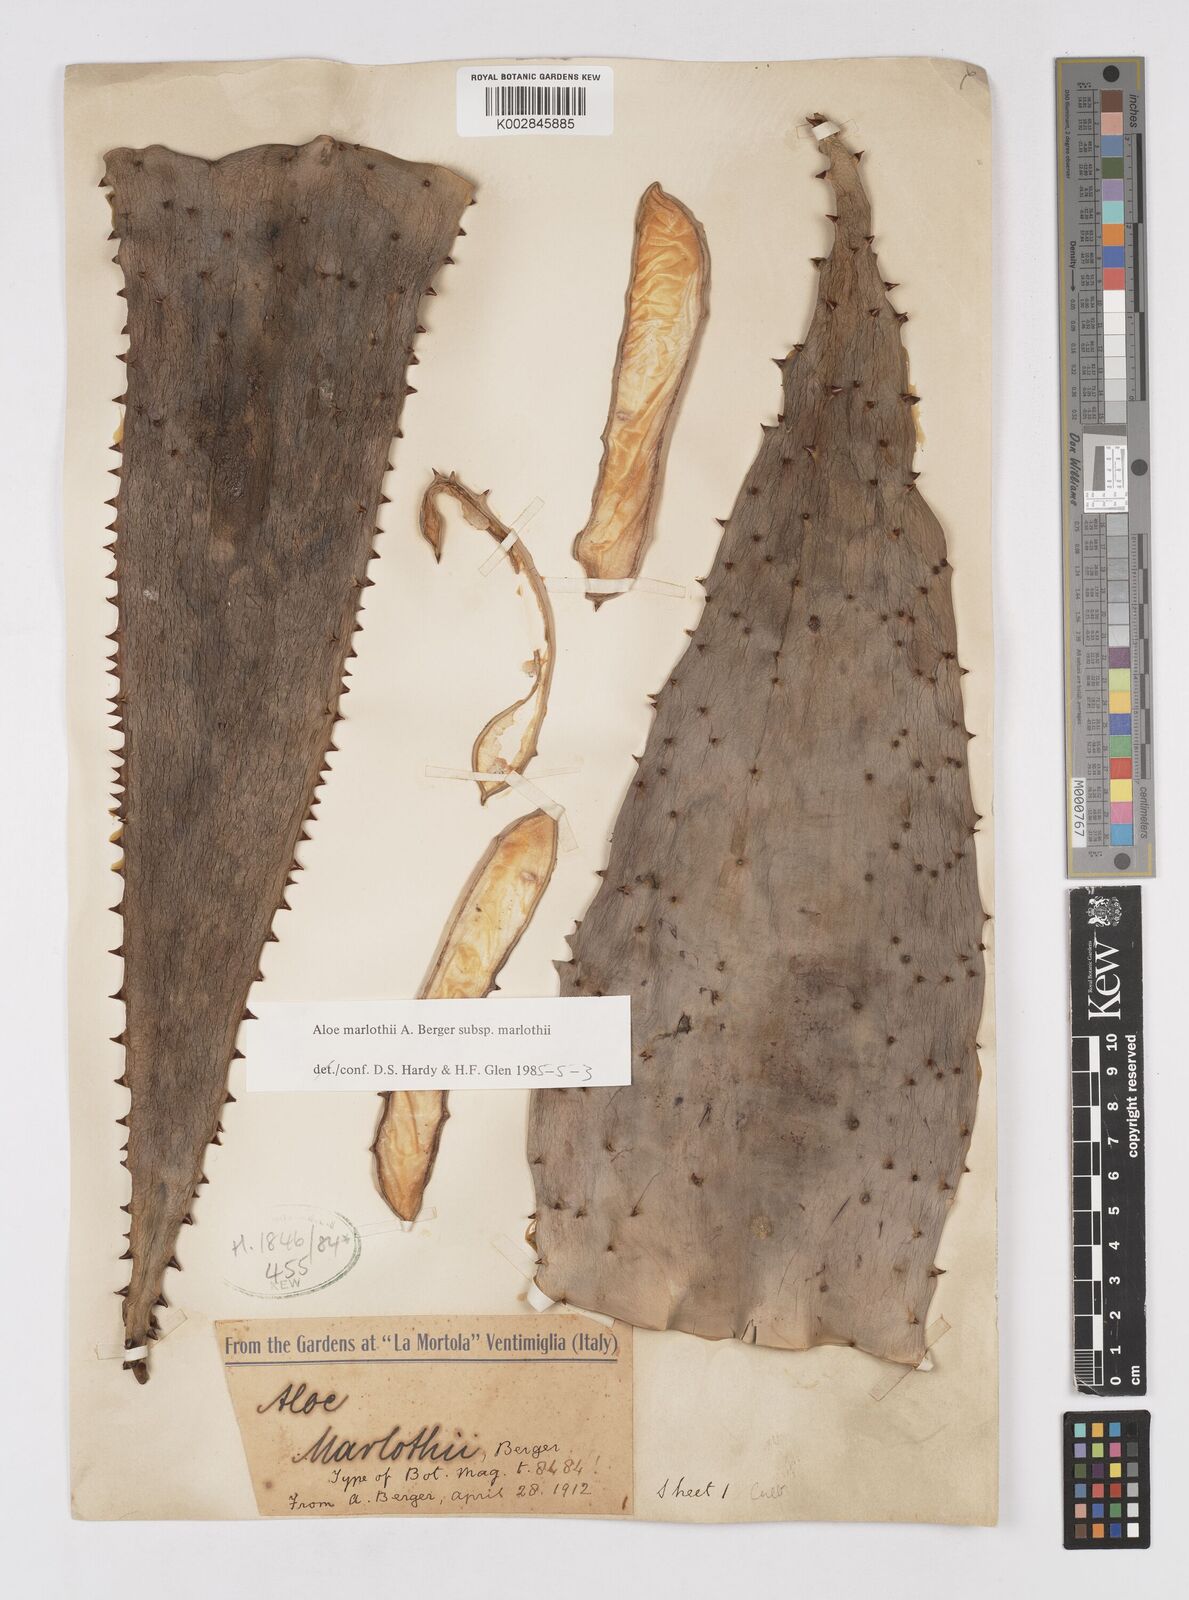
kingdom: Plantae
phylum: Tracheophyta
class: Liliopsida
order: Asparagales
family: Asphodelaceae
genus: Aloe
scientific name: Aloe marlothii
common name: Flat-flowered aloe
